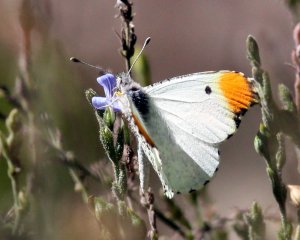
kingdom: Animalia
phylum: Arthropoda
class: Insecta
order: Lepidoptera
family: Pieridae
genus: Anthocharis
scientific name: Anthocharis midea
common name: Falcate Orangetip
